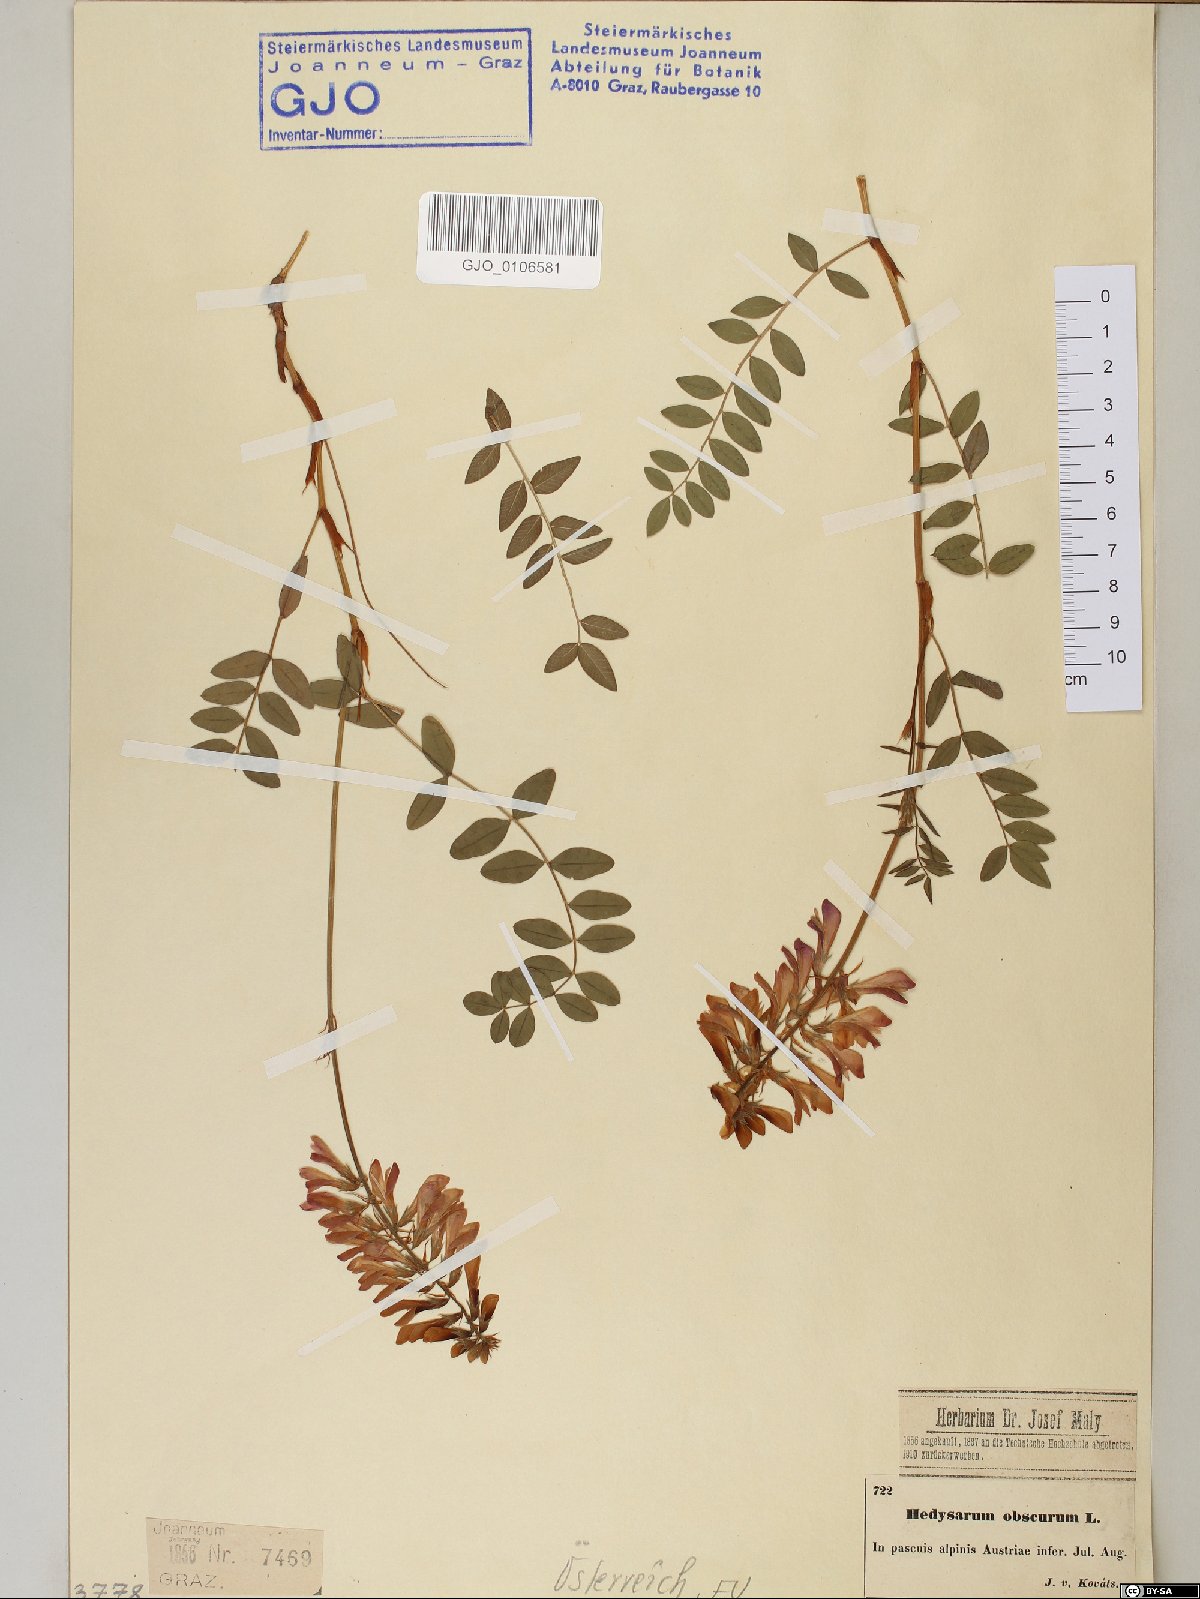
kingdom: Plantae
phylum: Tracheophyta
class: Magnoliopsida
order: Fabales
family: Fabaceae
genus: Hedysarum
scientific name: Hedysarum hedysaroides
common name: Alpine french-honeysuckle
